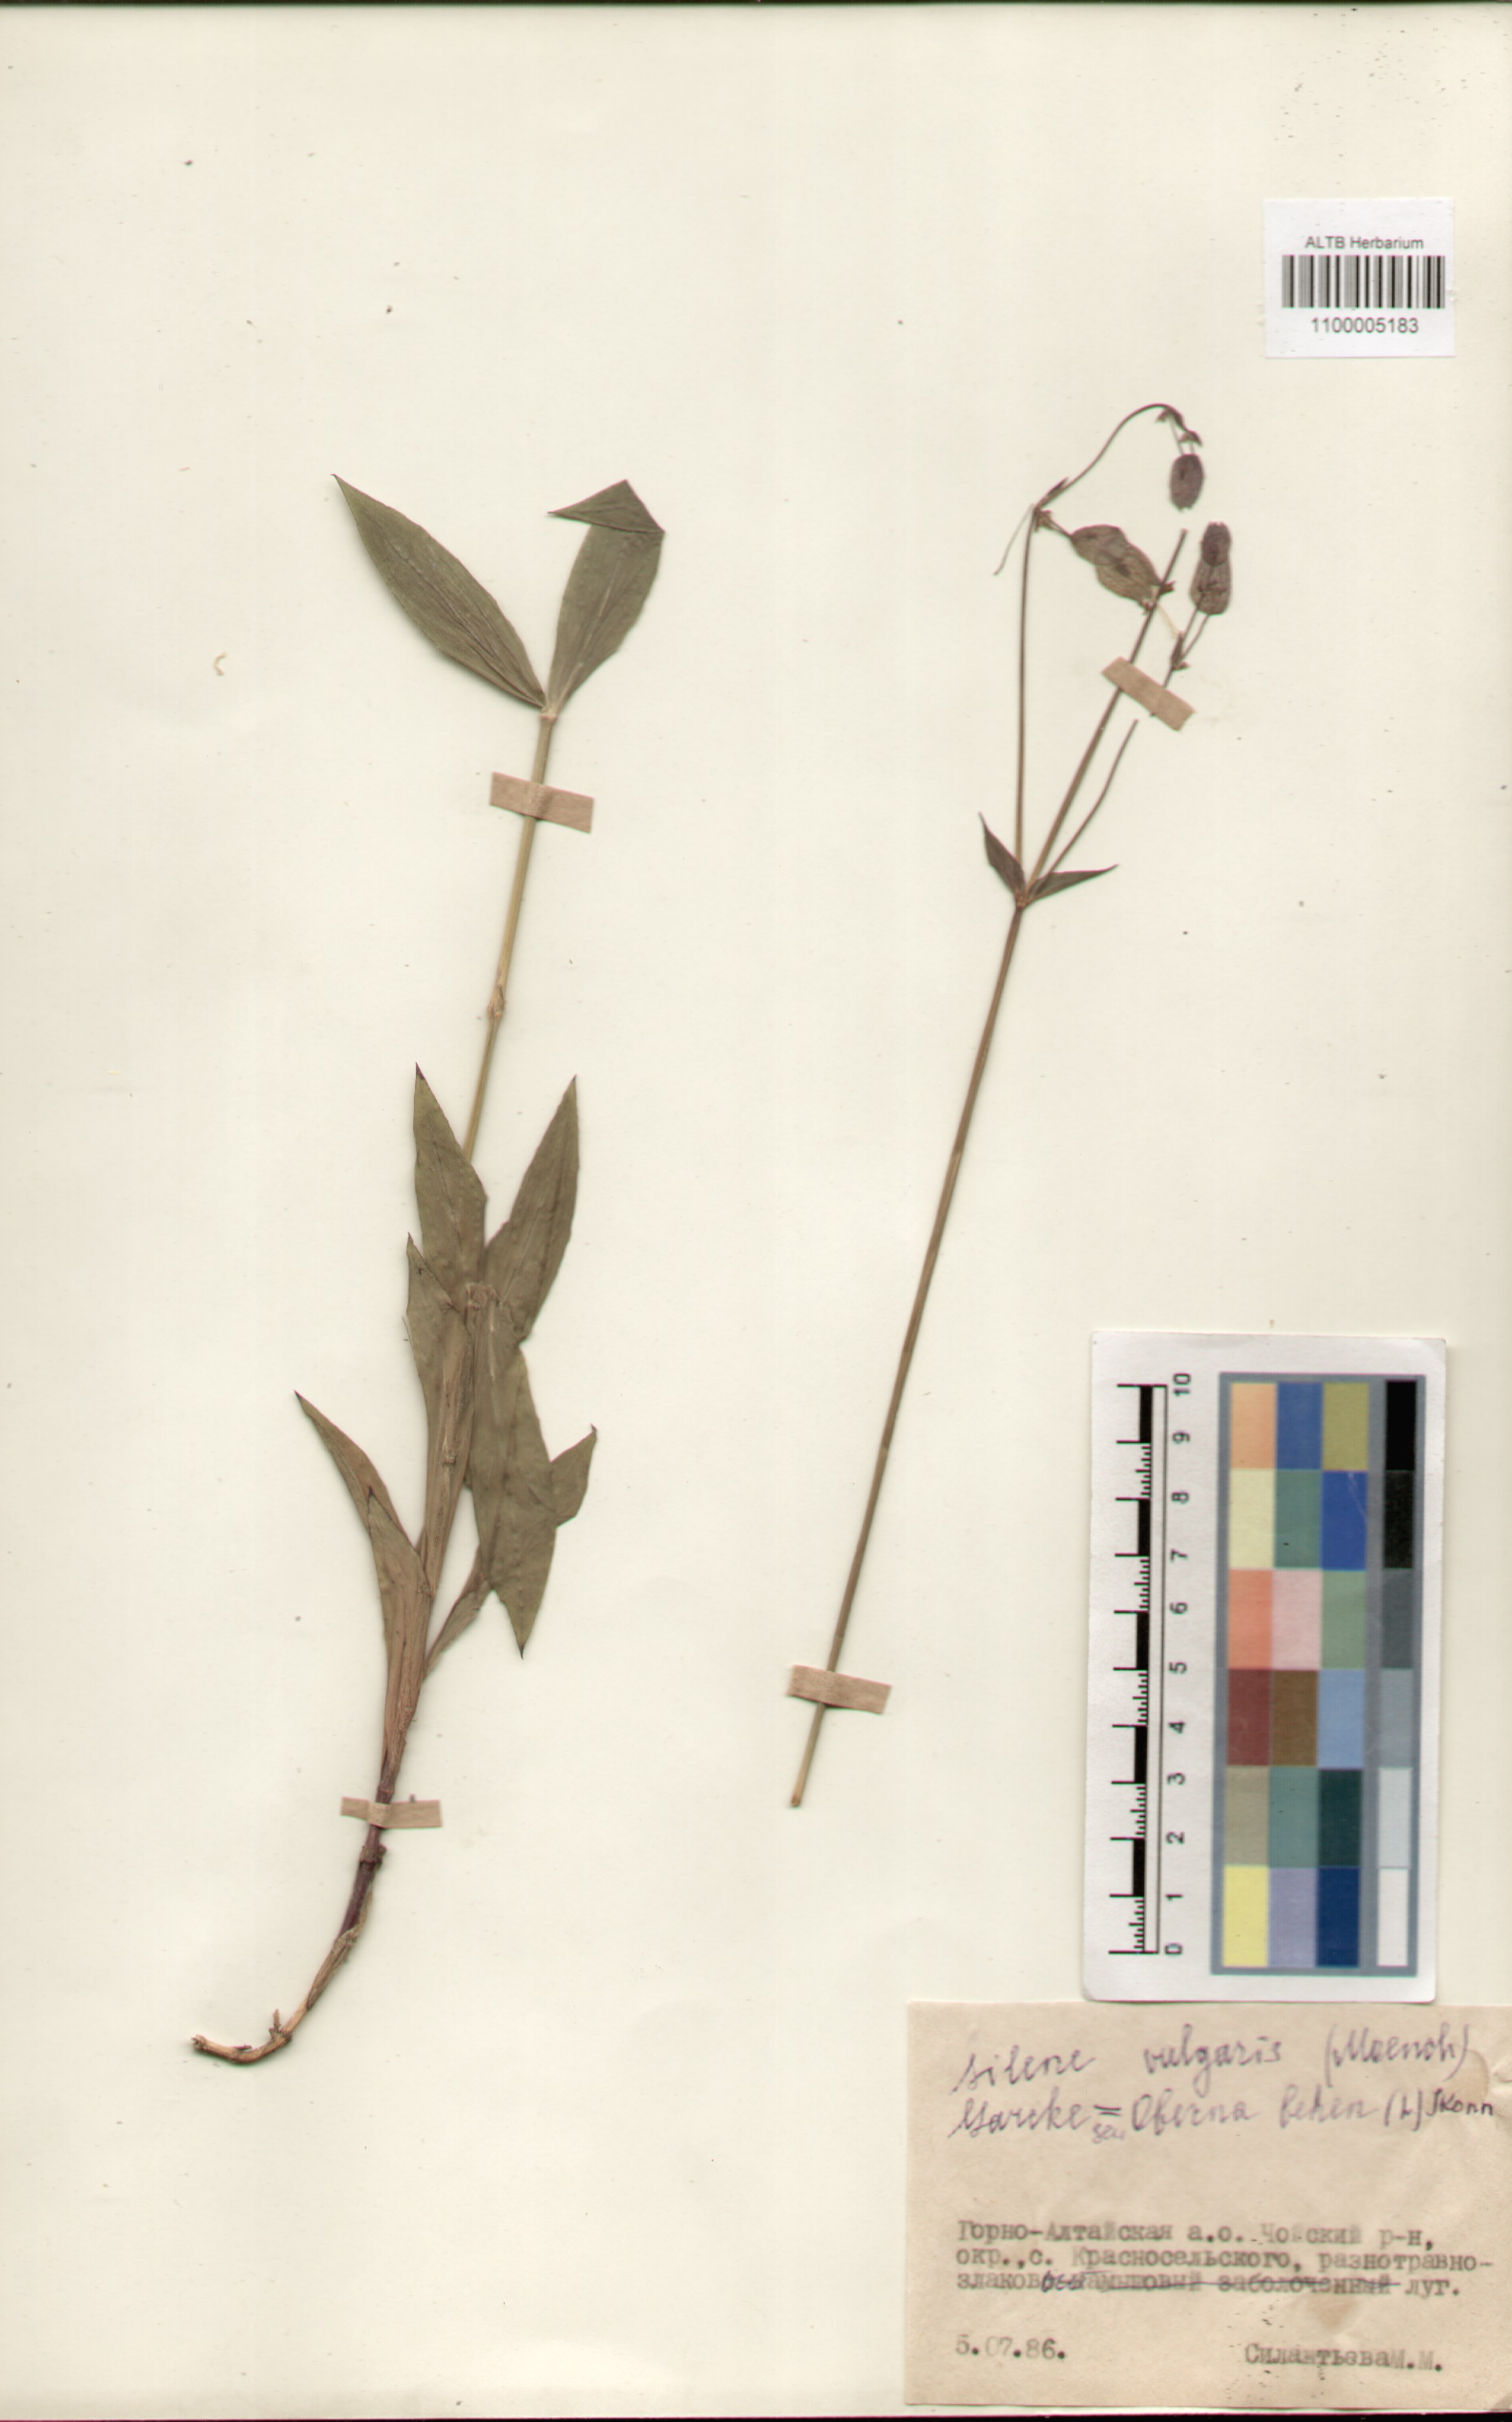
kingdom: Plantae
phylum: Tracheophyta
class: Magnoliopsida
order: Caryophyllales
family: Caryophyllaceae
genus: Silene
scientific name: Silene vulgaris
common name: Bladder campion
